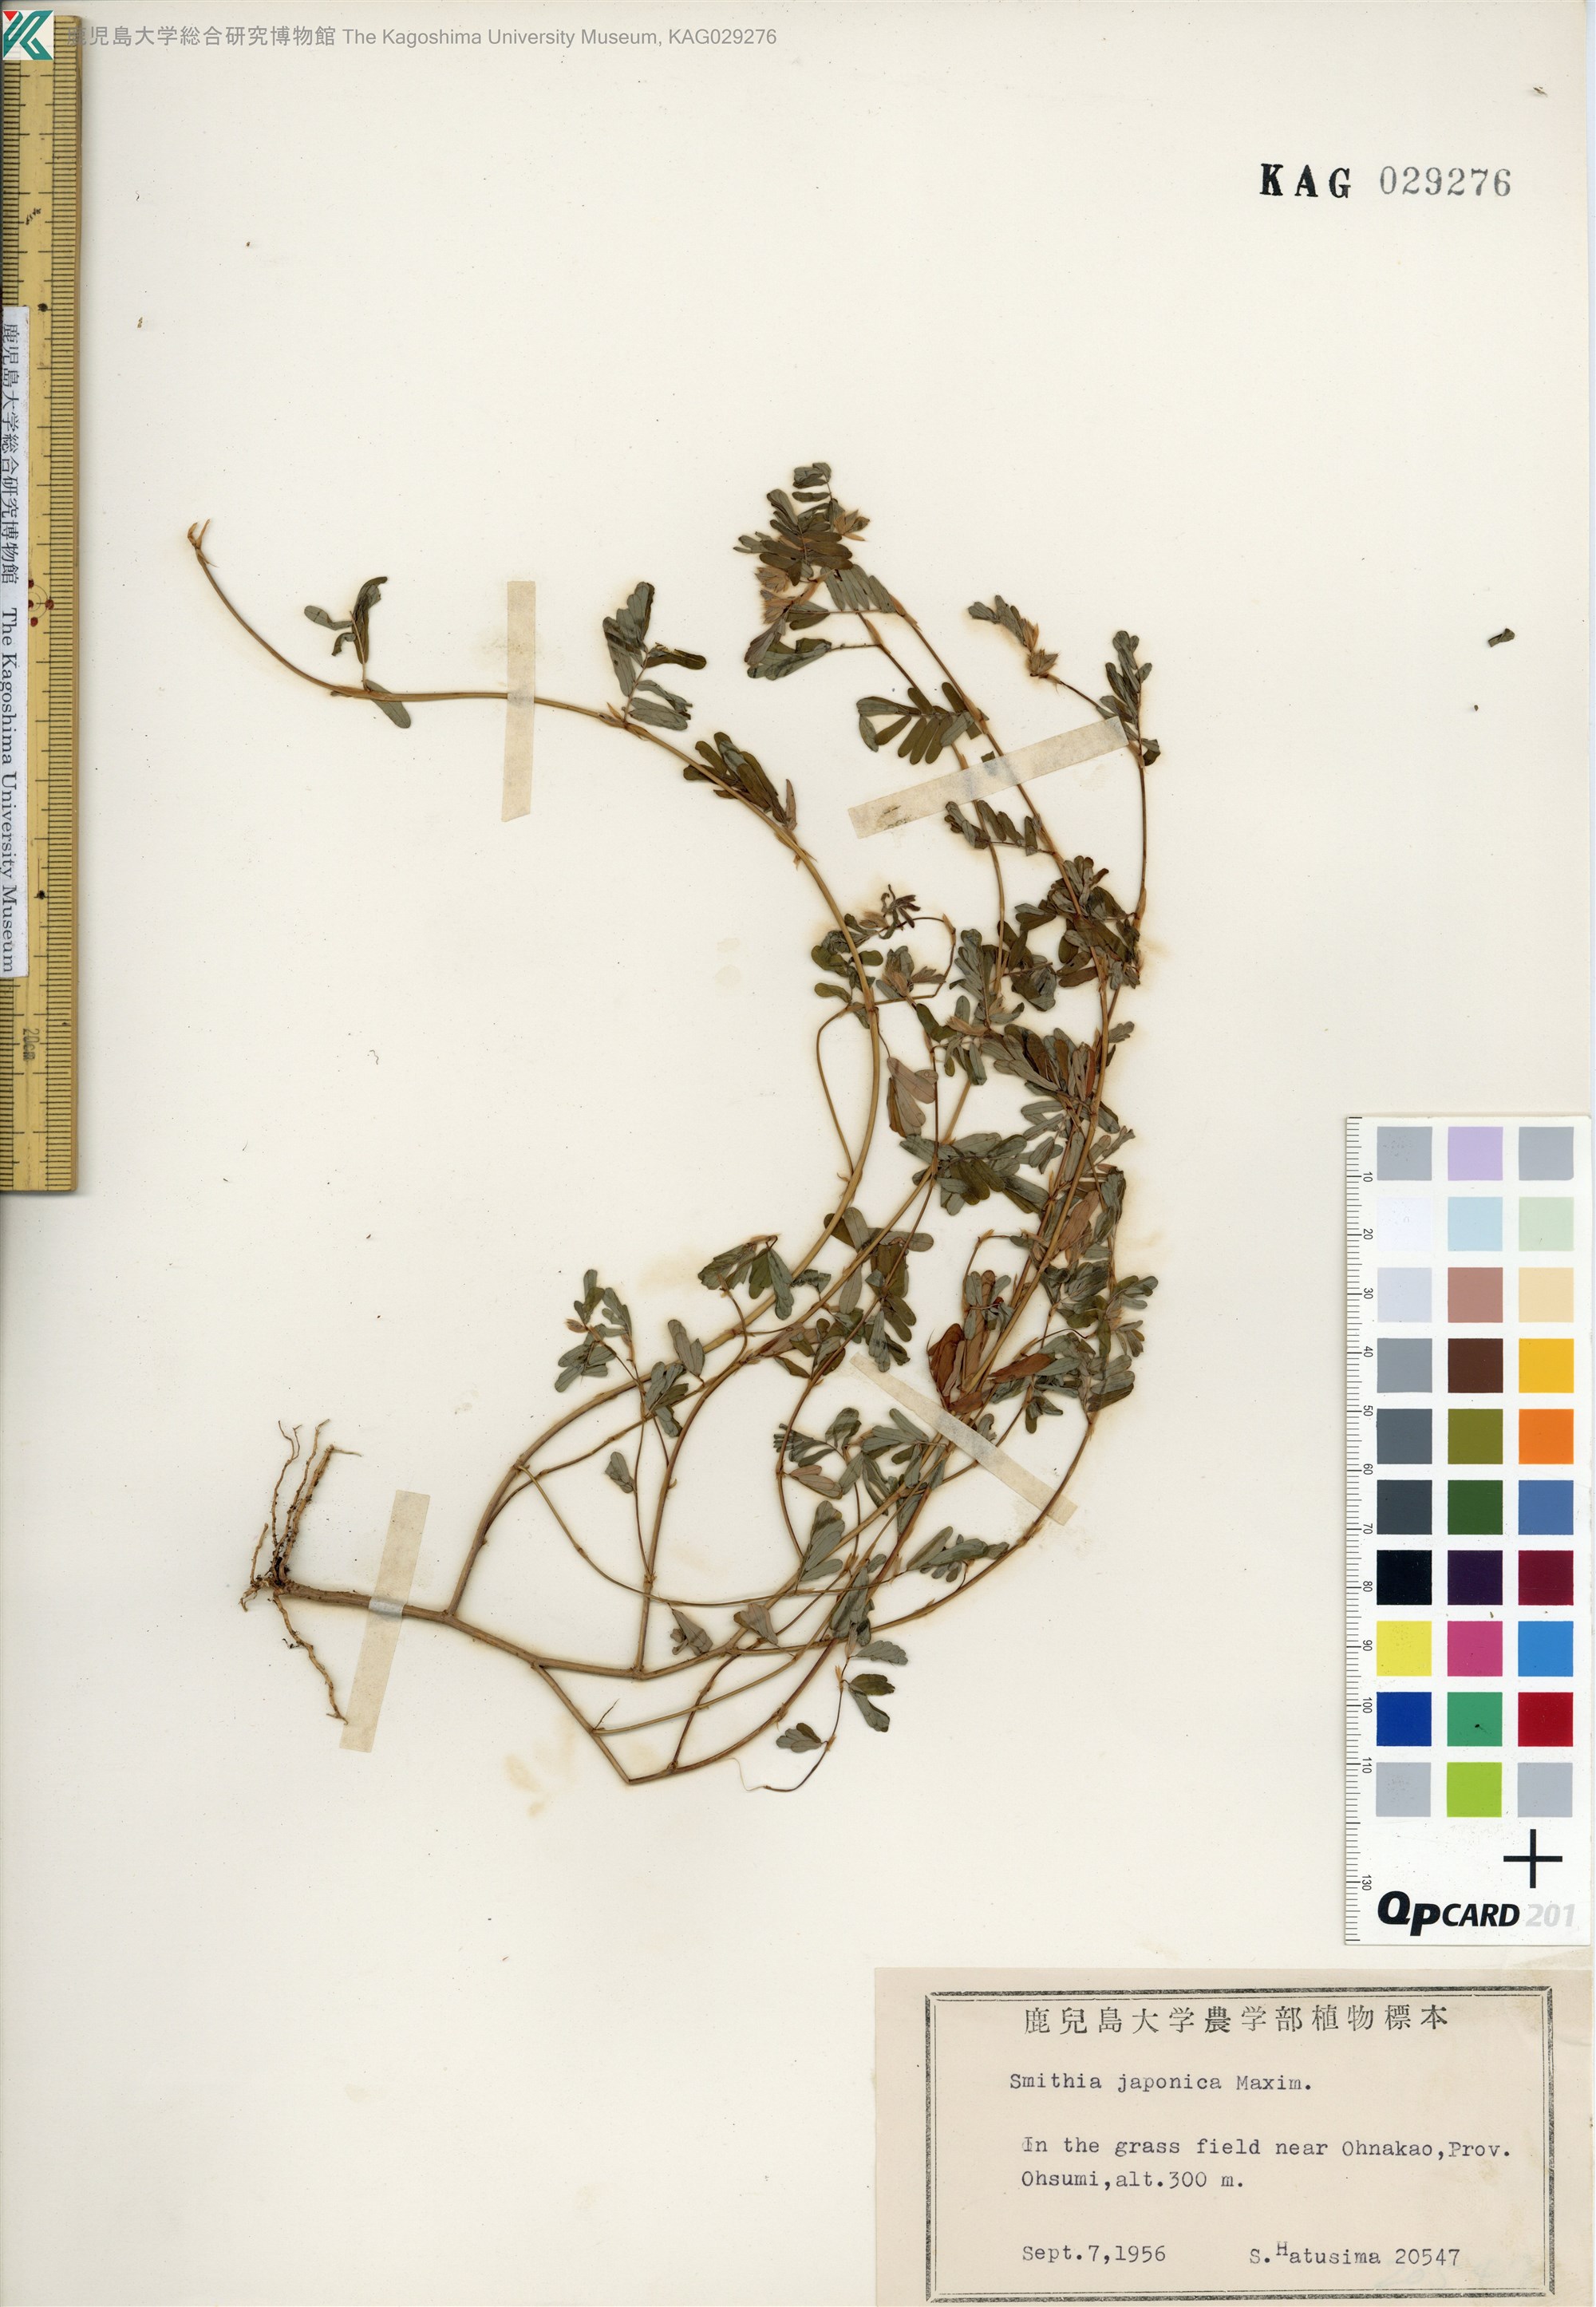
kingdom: Plantae
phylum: Tracheophyta
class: Magnoliopsida
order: Fabales
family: Fabaceae
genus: Smithia
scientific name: Smithia ciliata
